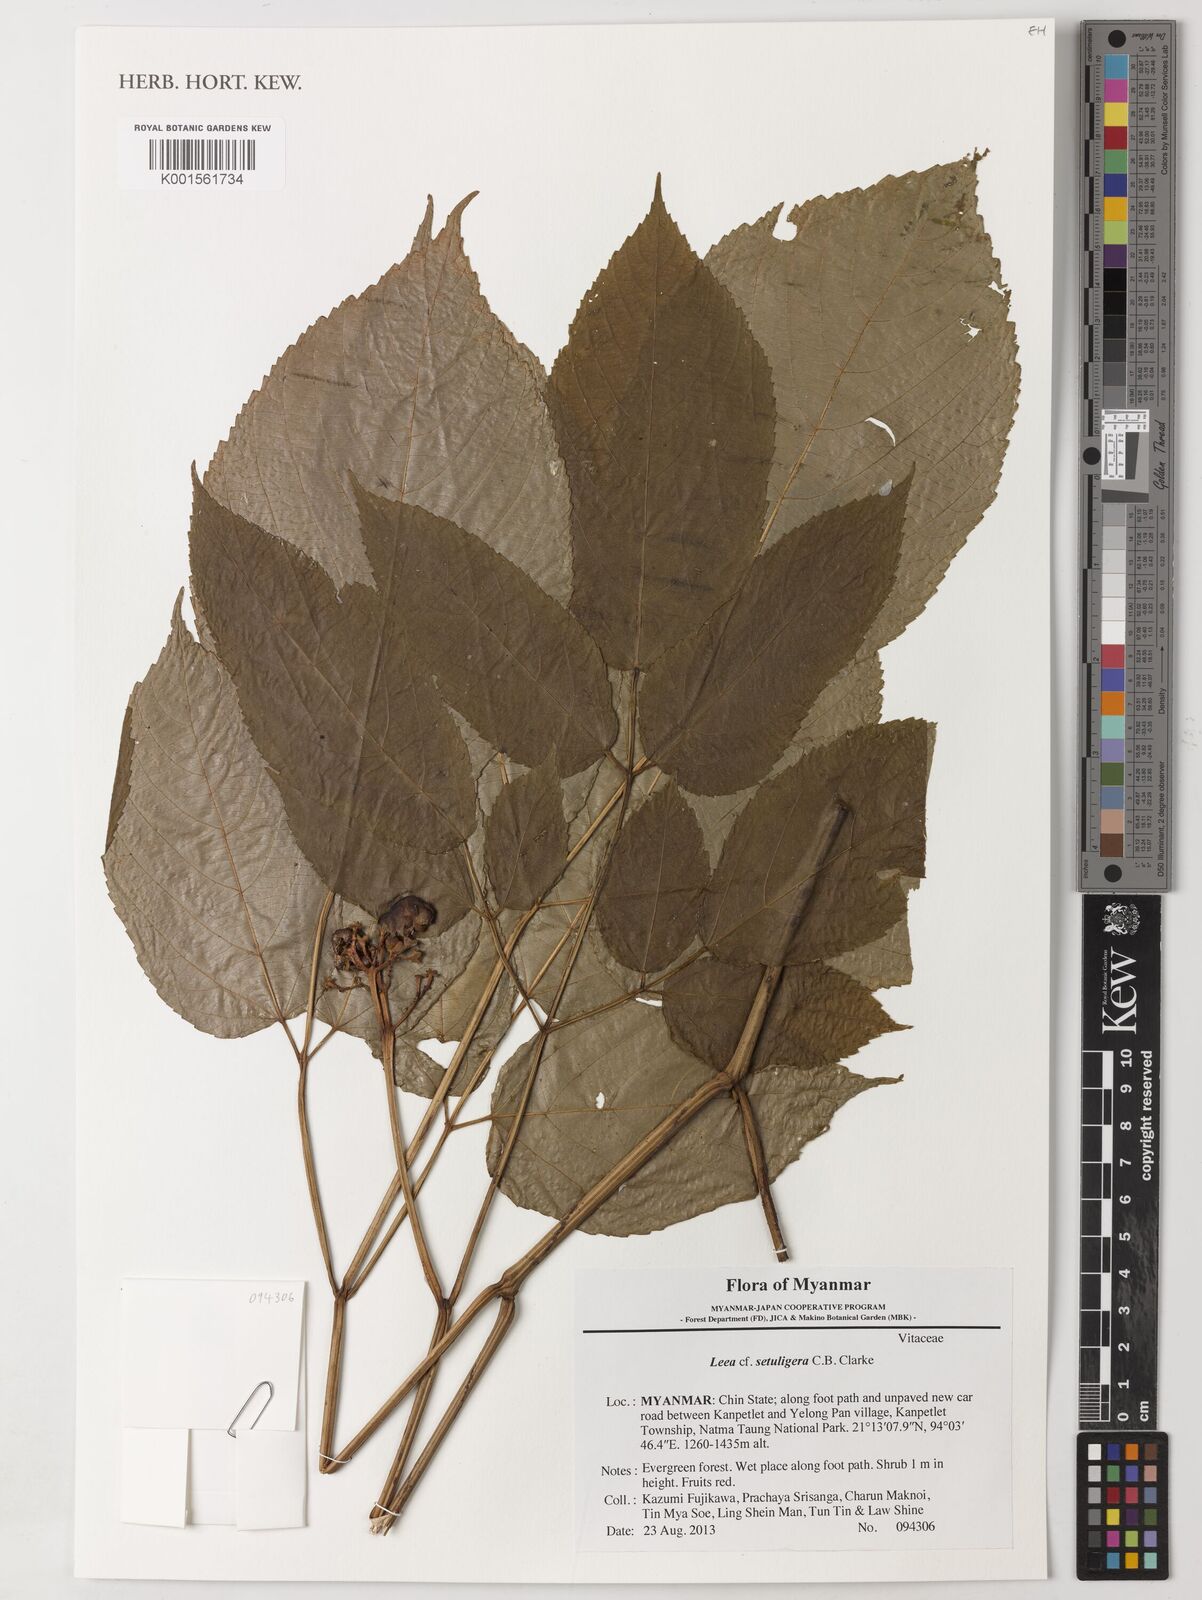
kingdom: Plantae
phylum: Tracheophyta
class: Magnoliopsida
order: Vitales
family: Vitaceae
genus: Leea
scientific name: Leea setuligera
